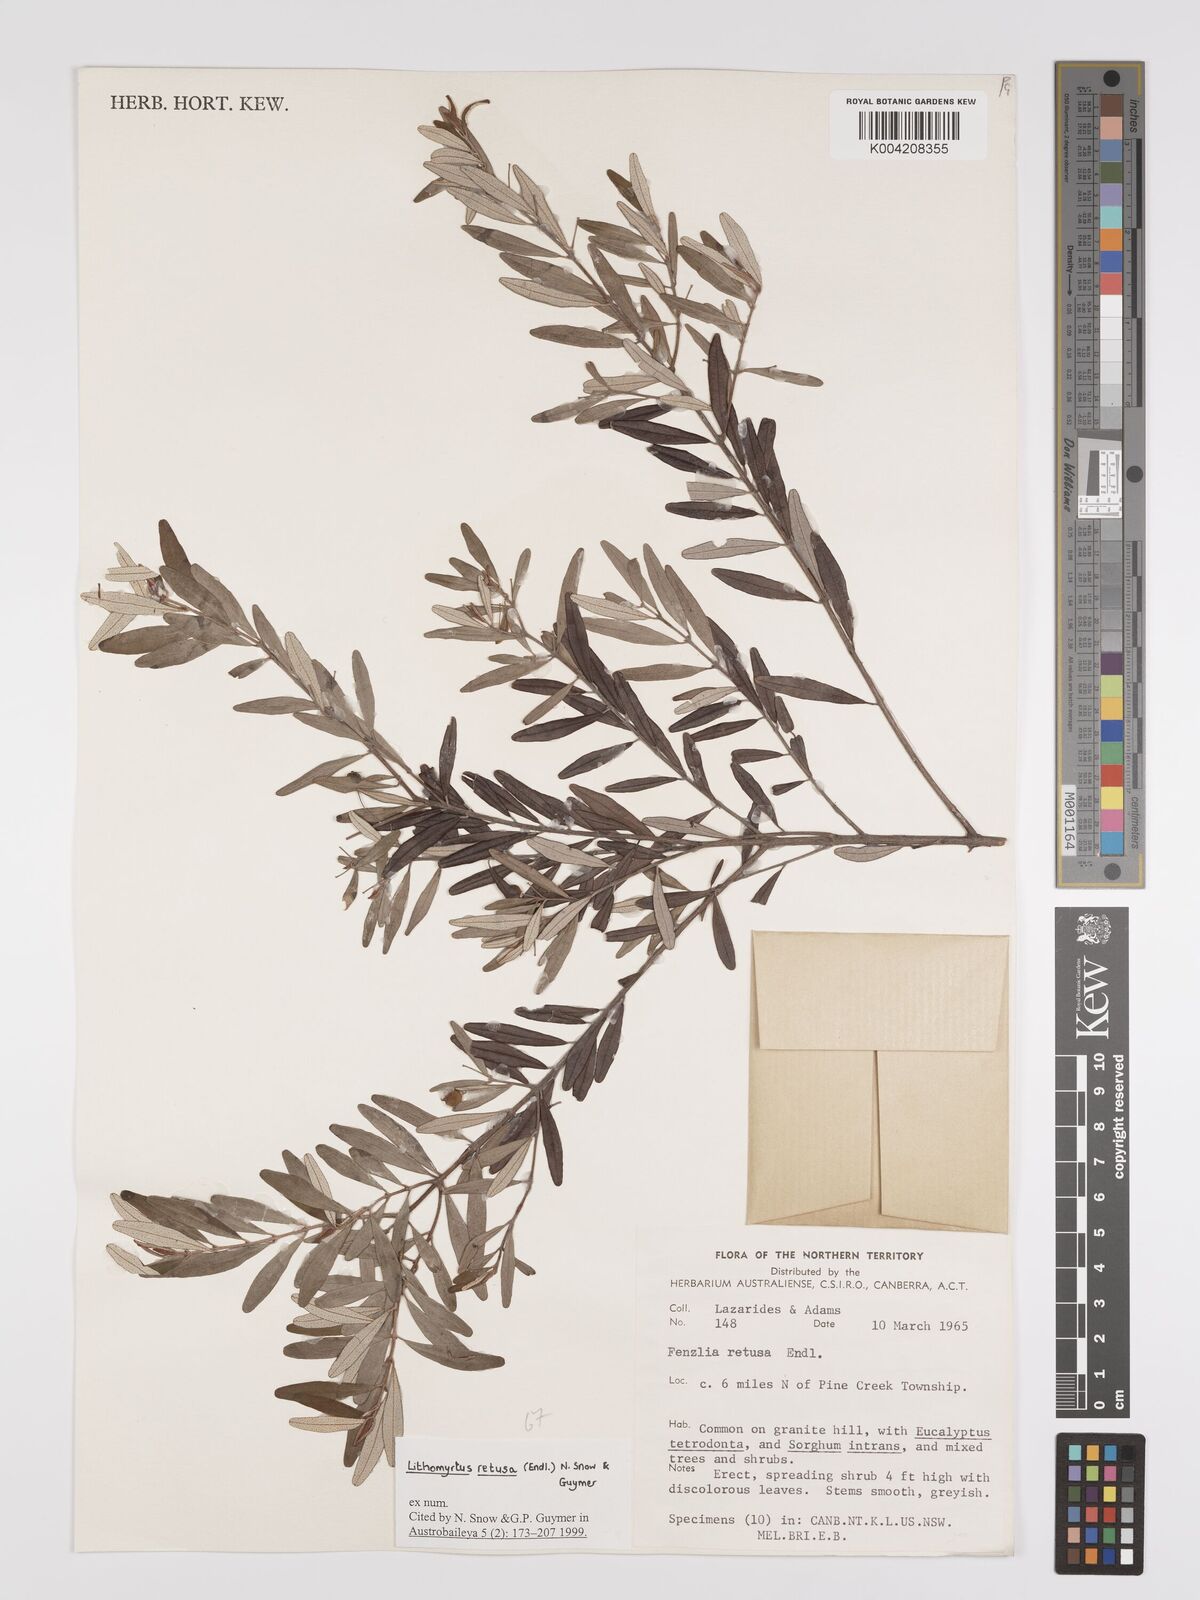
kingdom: Plantae
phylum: Tracheophyta
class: Magnoliopsida
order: Myrtales
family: Myrtaceae
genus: Lithomyrtus
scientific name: Lithomyrtus retusa
